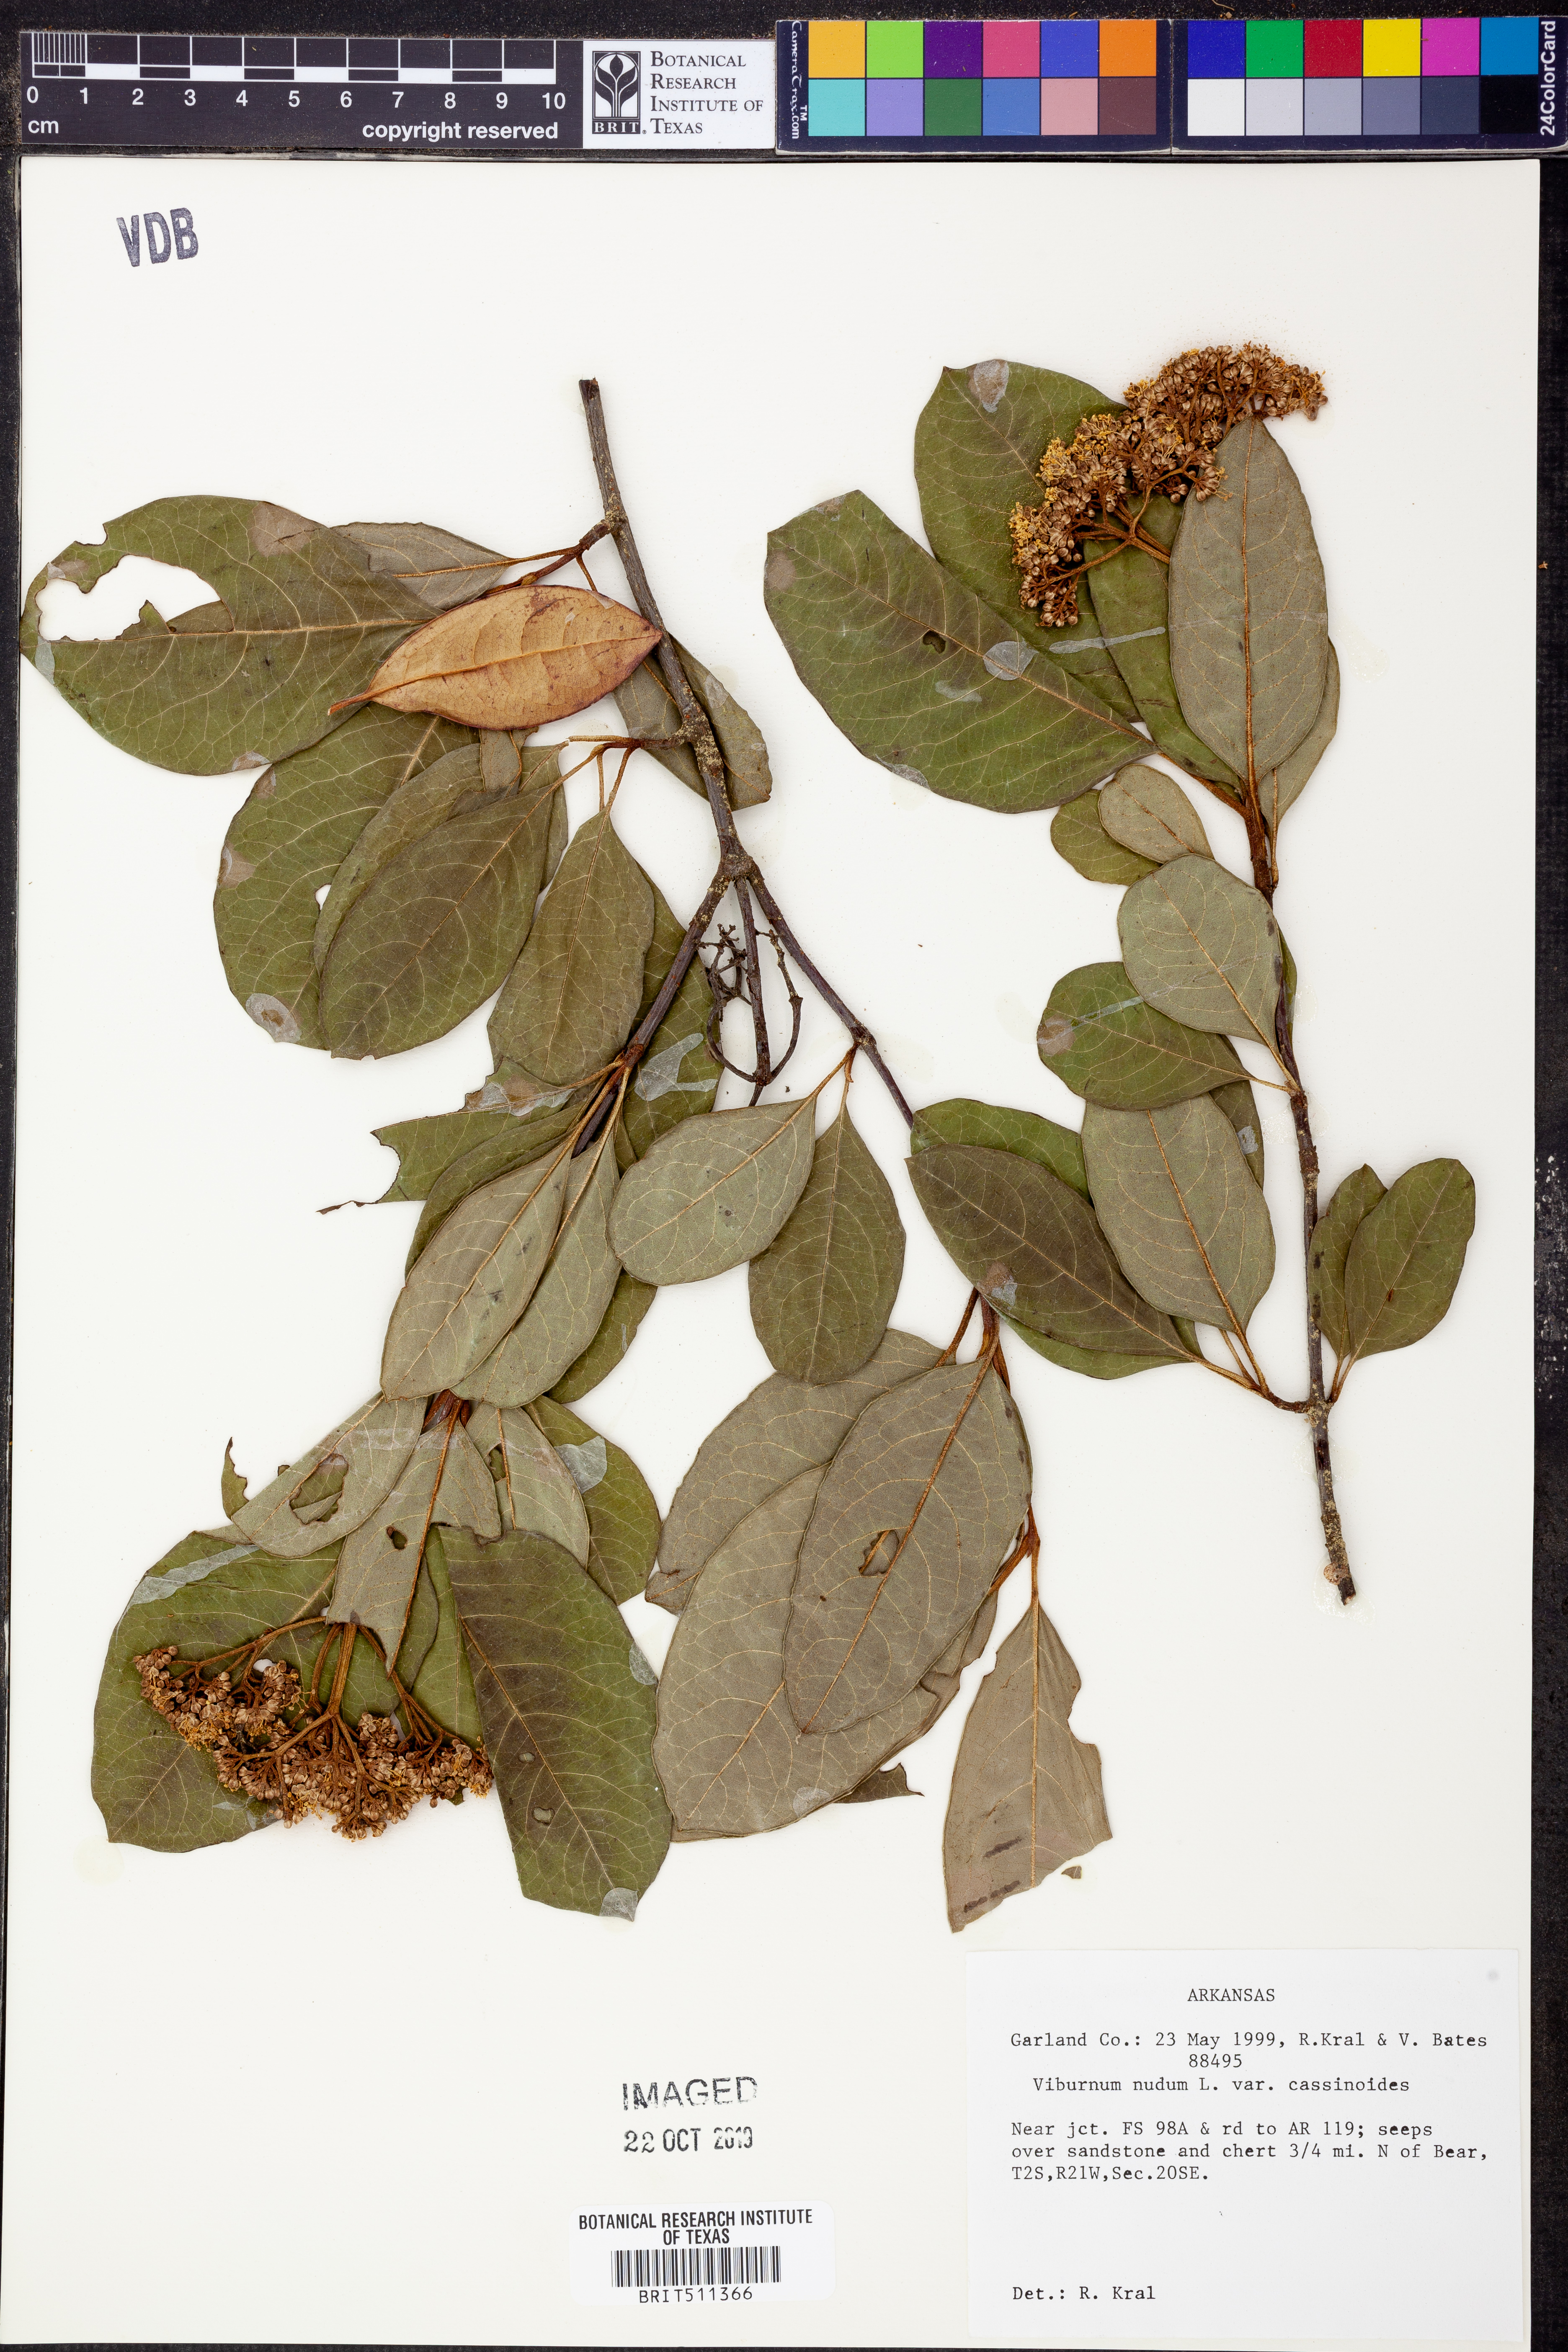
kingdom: Plantae
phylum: Tracheophyta
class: Magnoliopsida
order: Dipsacales
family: Viburnaceae
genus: Viburnum
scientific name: Viburnum cassinoides
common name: Swamp haw
